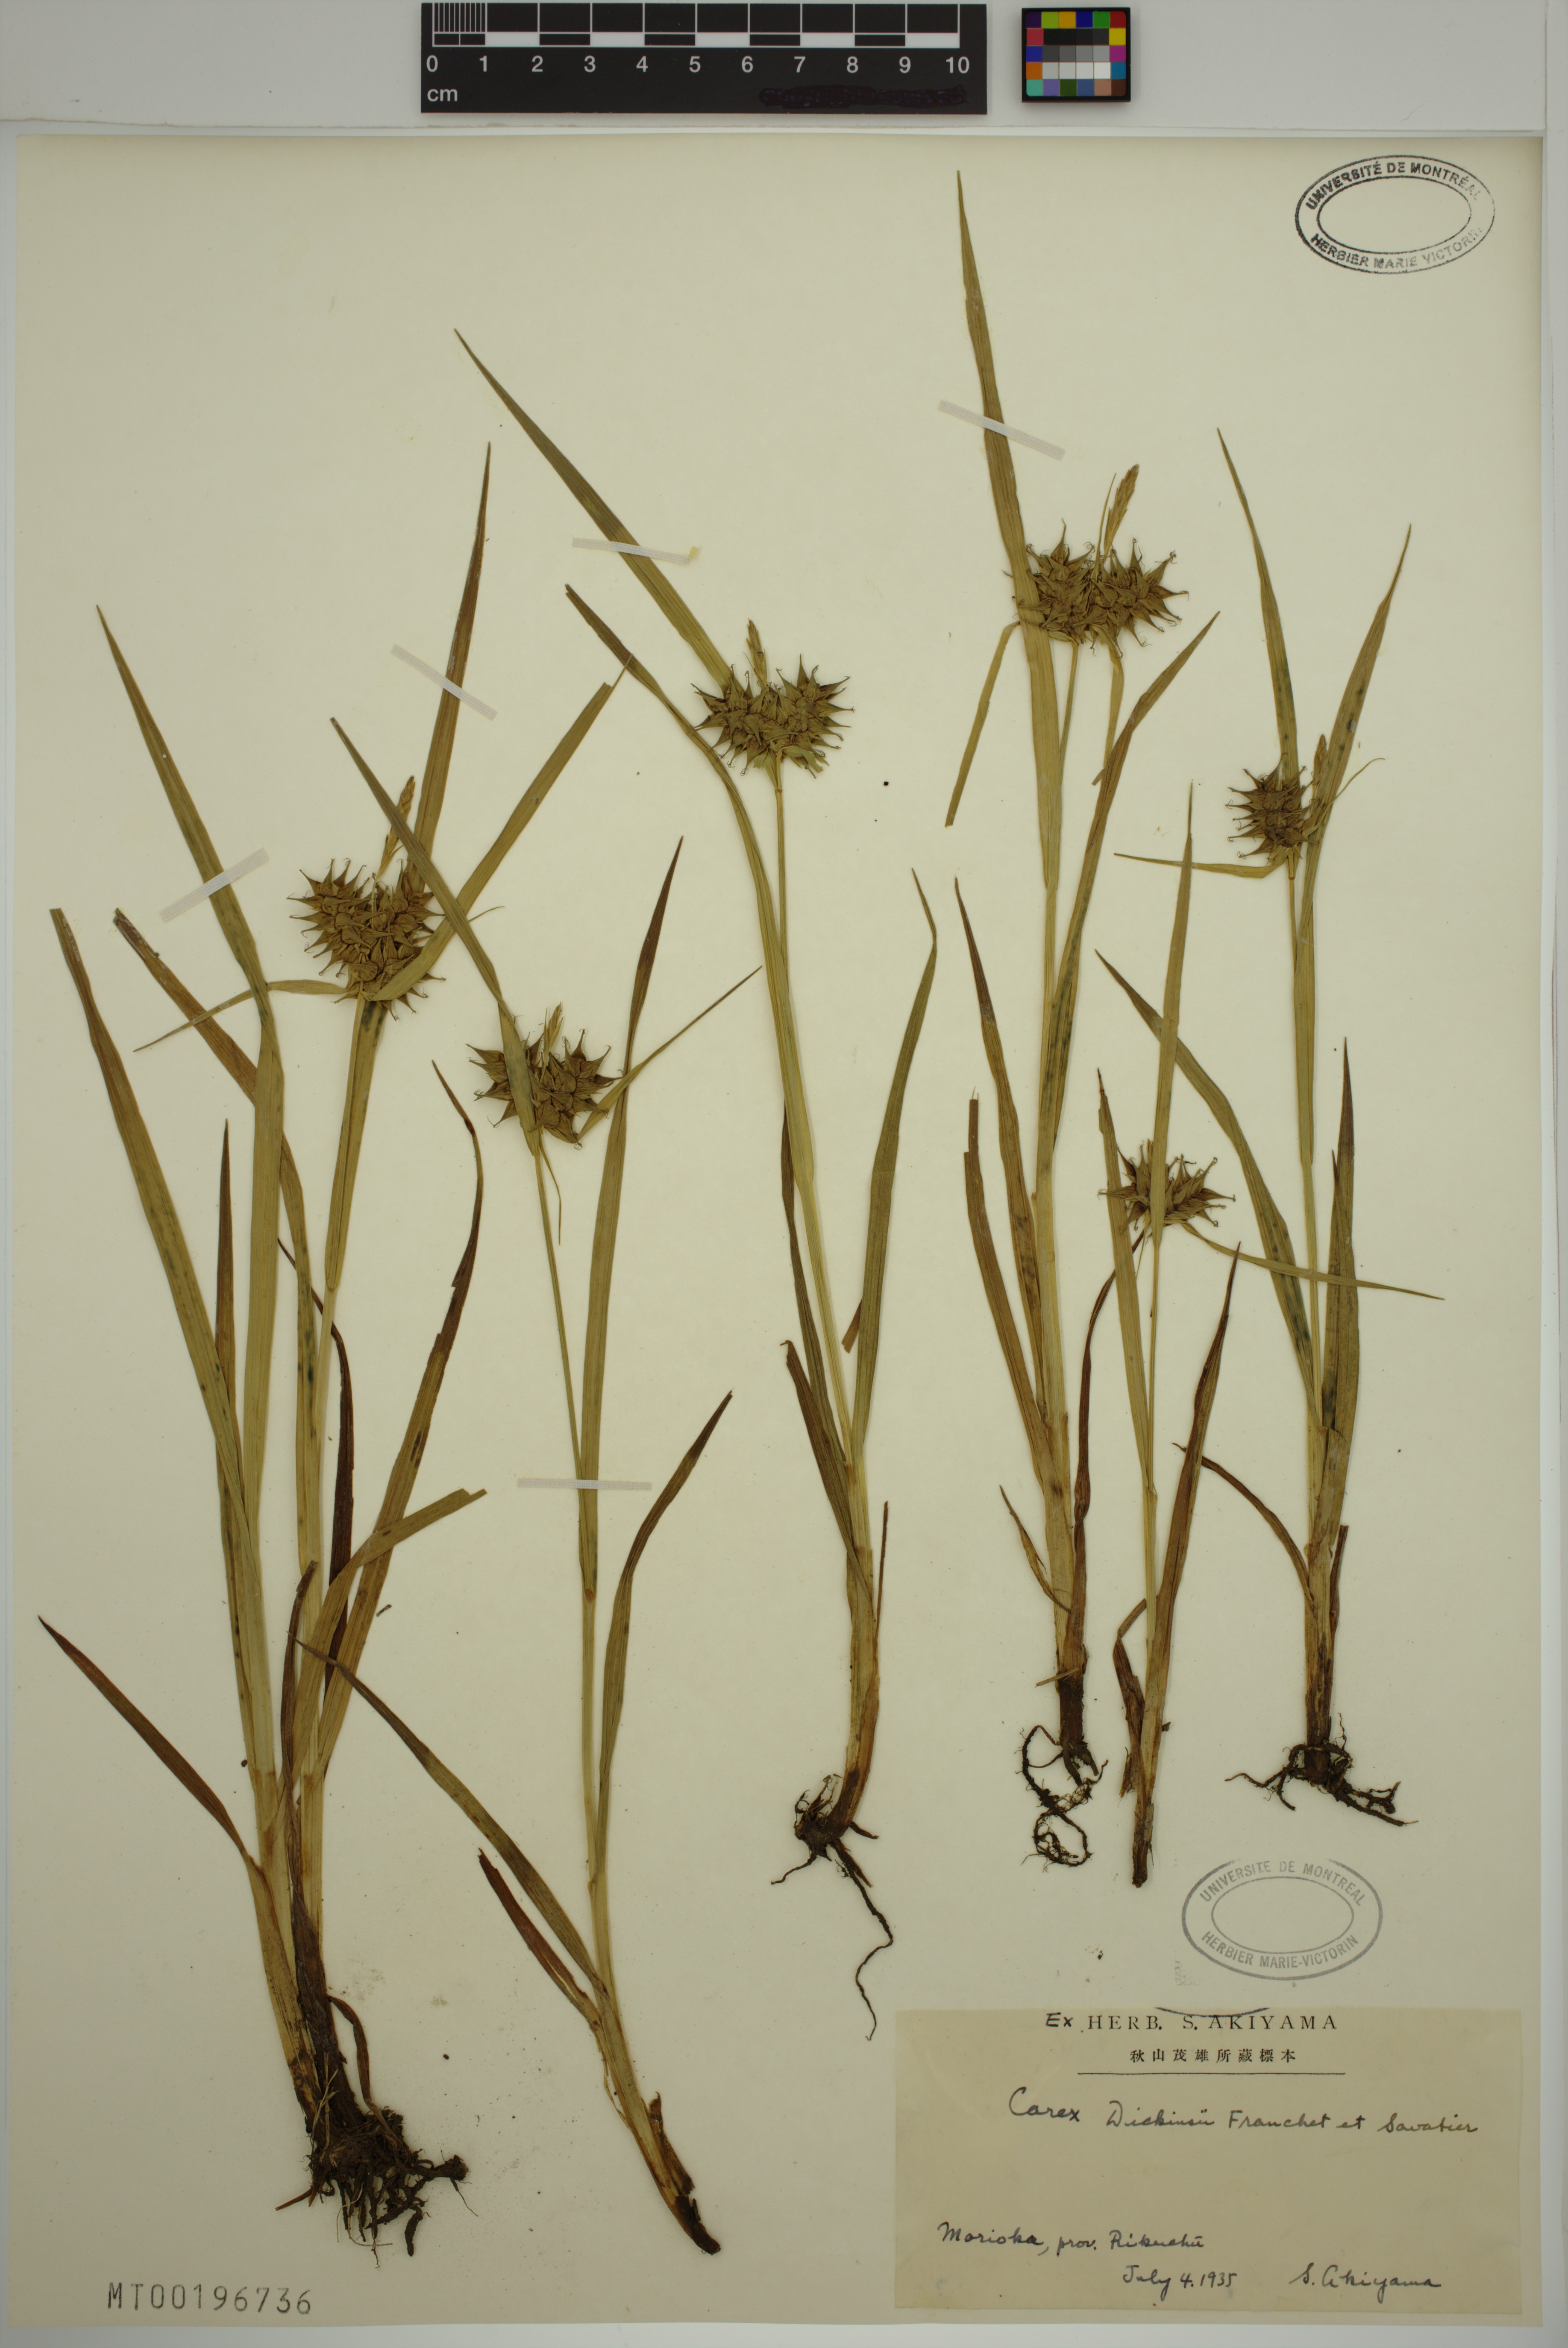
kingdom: Plantae
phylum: Tracheophyta
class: Liliopsida
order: Poales
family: Cyperaceae
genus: Carex
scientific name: Carex dickinsii
